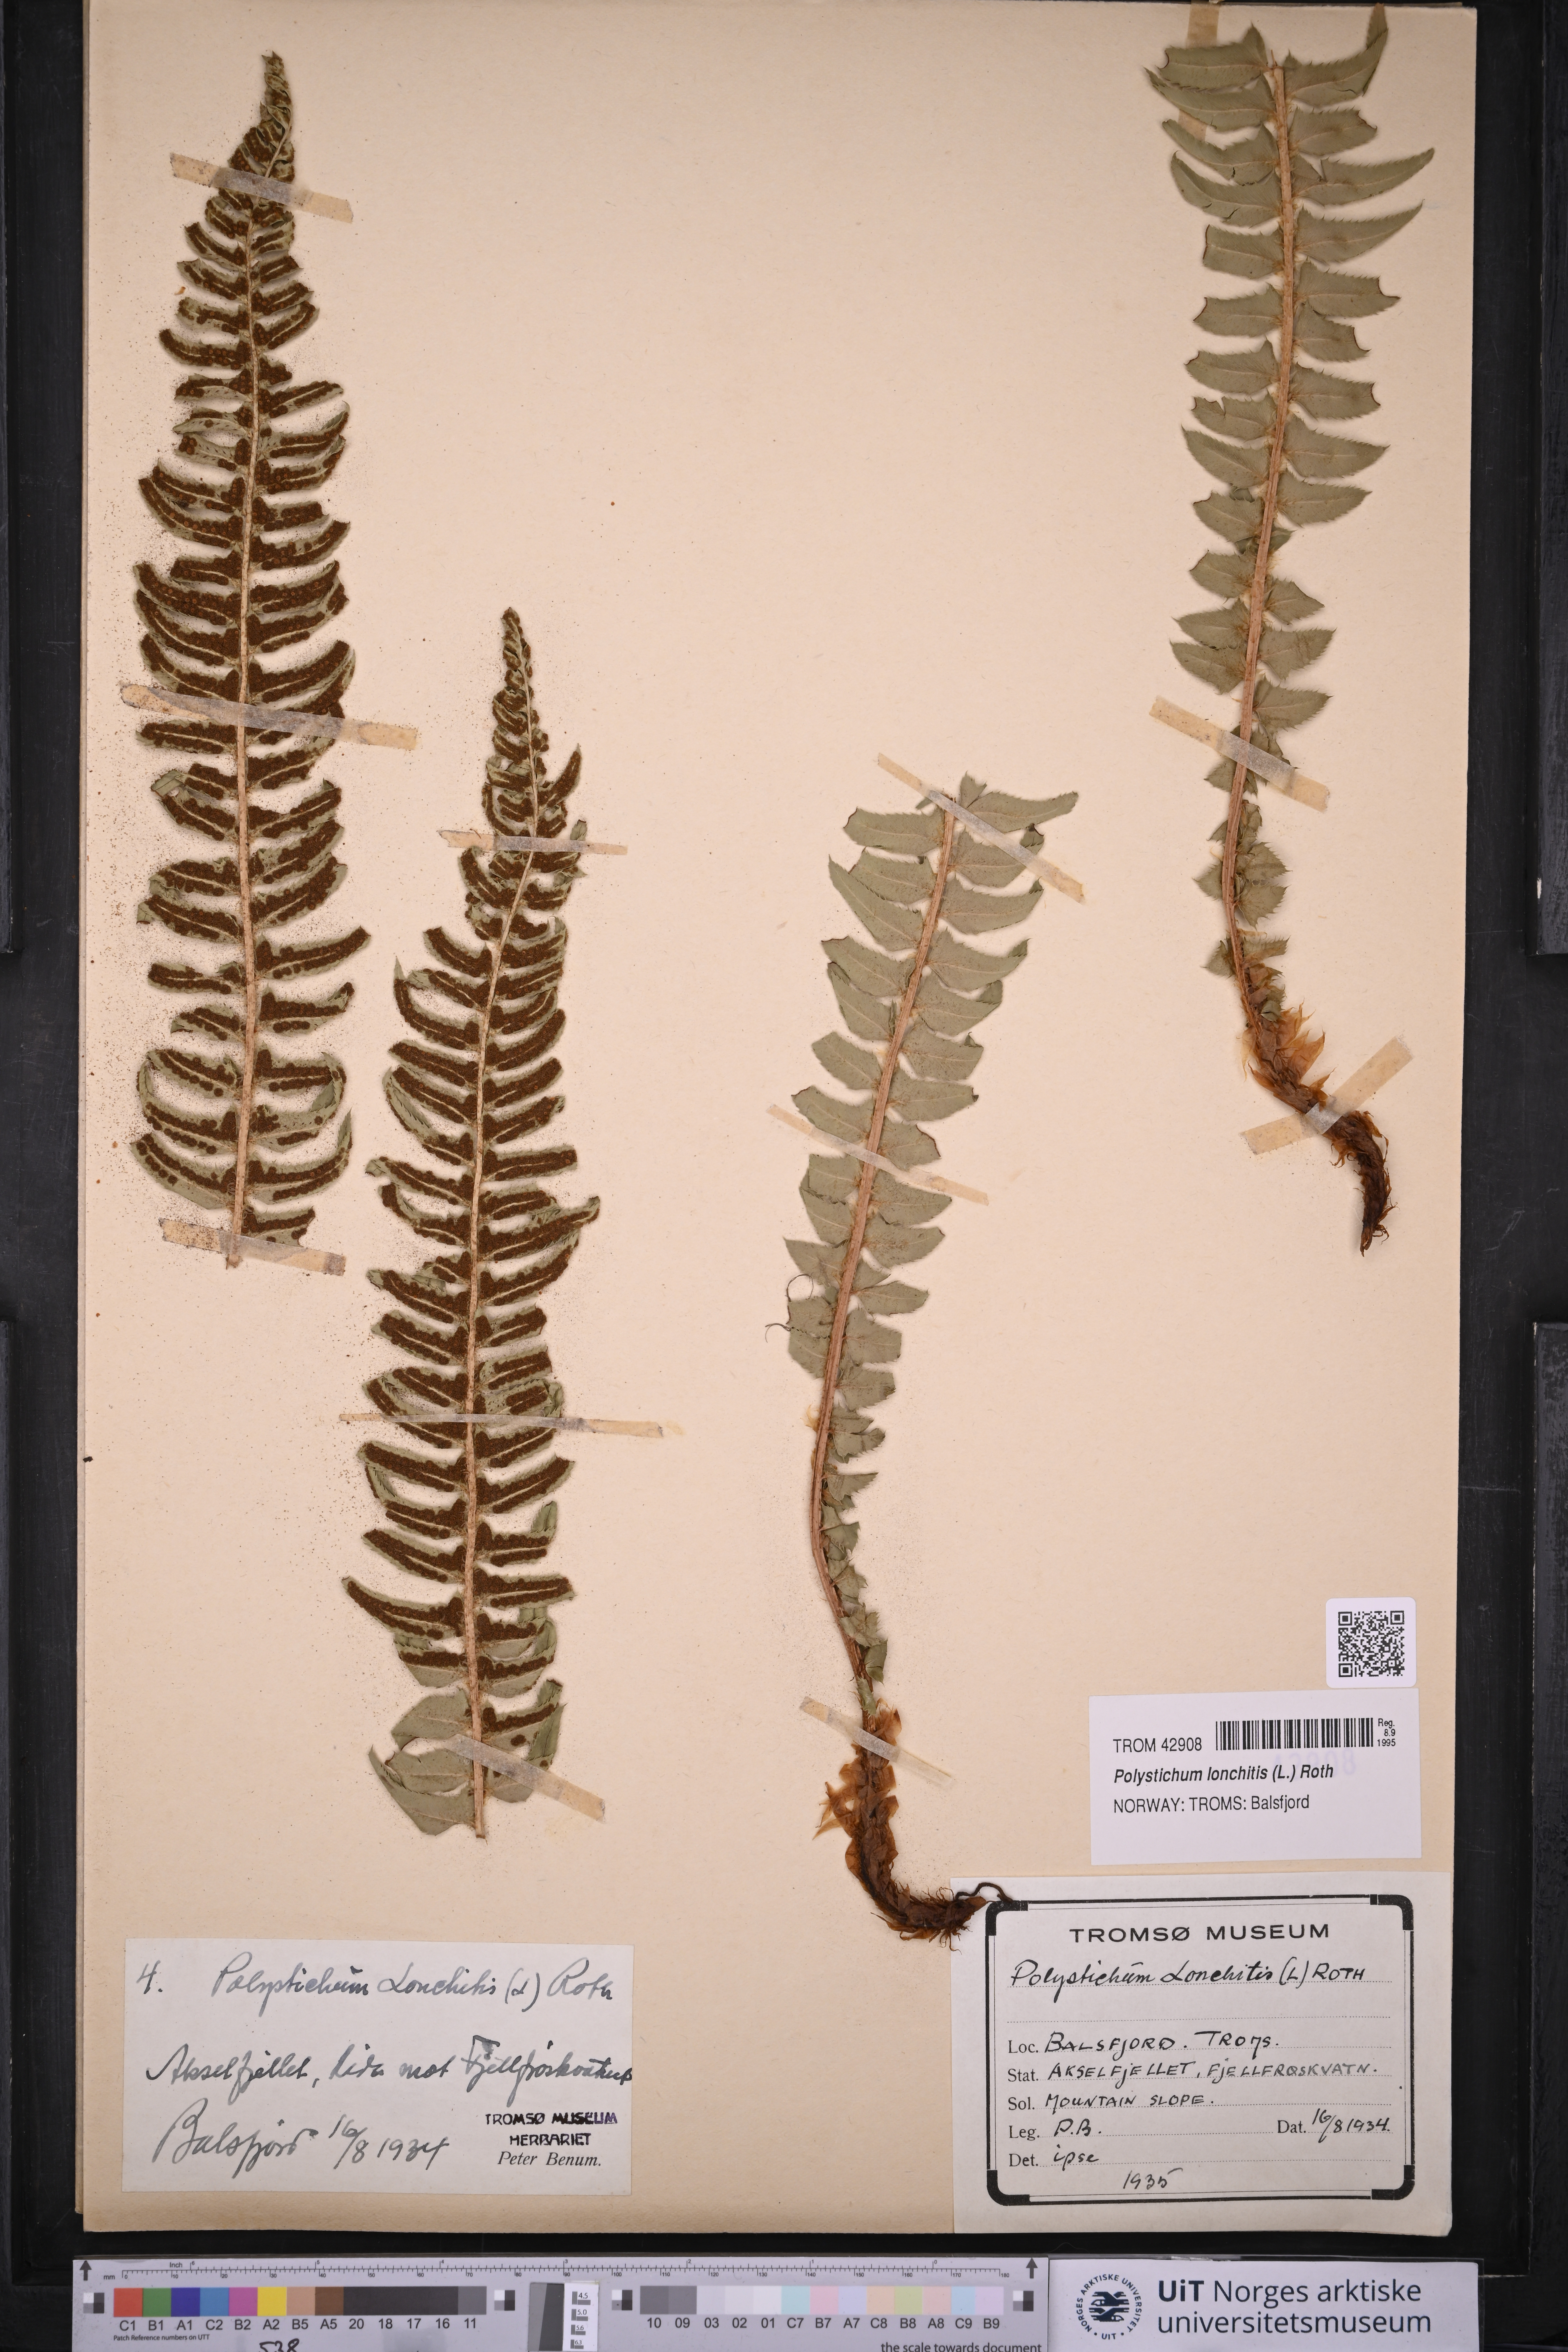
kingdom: Plantae
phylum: Tracheophyta
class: Polypodiopsida
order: Polypodiales
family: Dryopteridaceae
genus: Polystichum
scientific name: Polystichum lonchitis
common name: Holly fern
